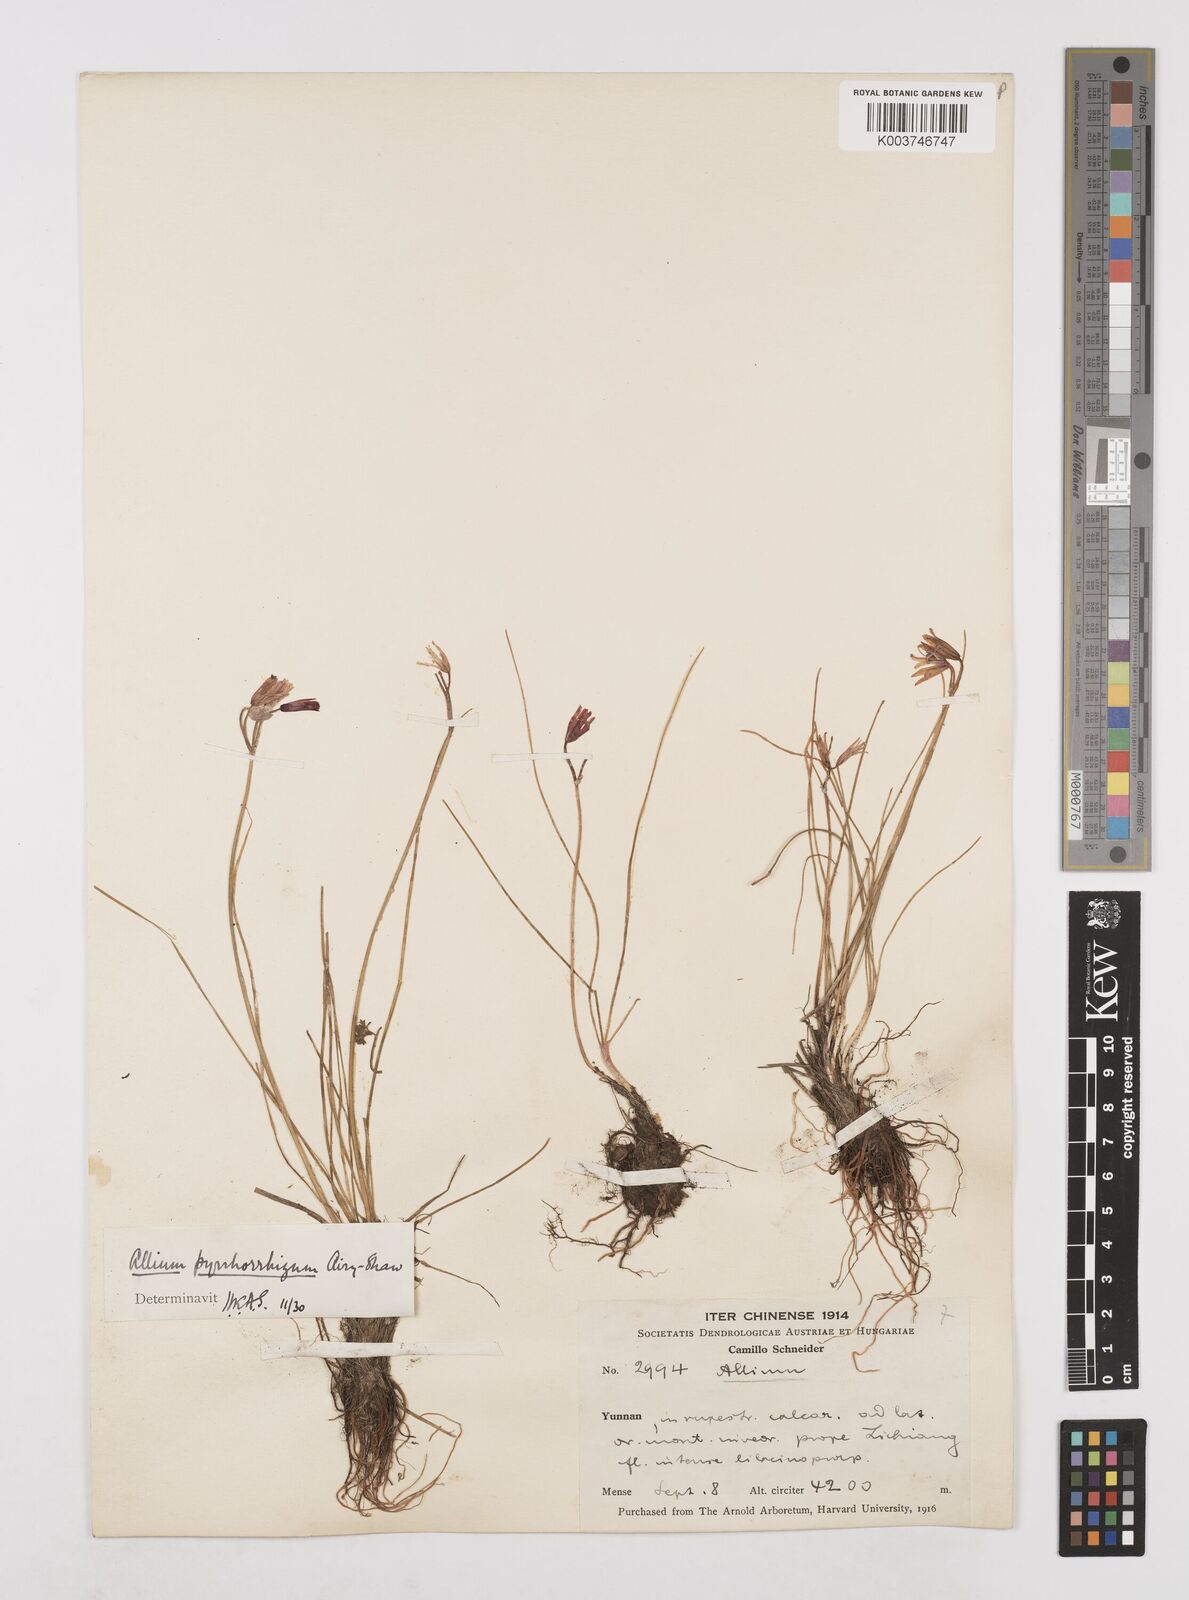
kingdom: Plantae
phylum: Tracheophyta
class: Liliopsida
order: Asparagales
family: Amaryllidaceae
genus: Allium
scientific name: Allium mairei
